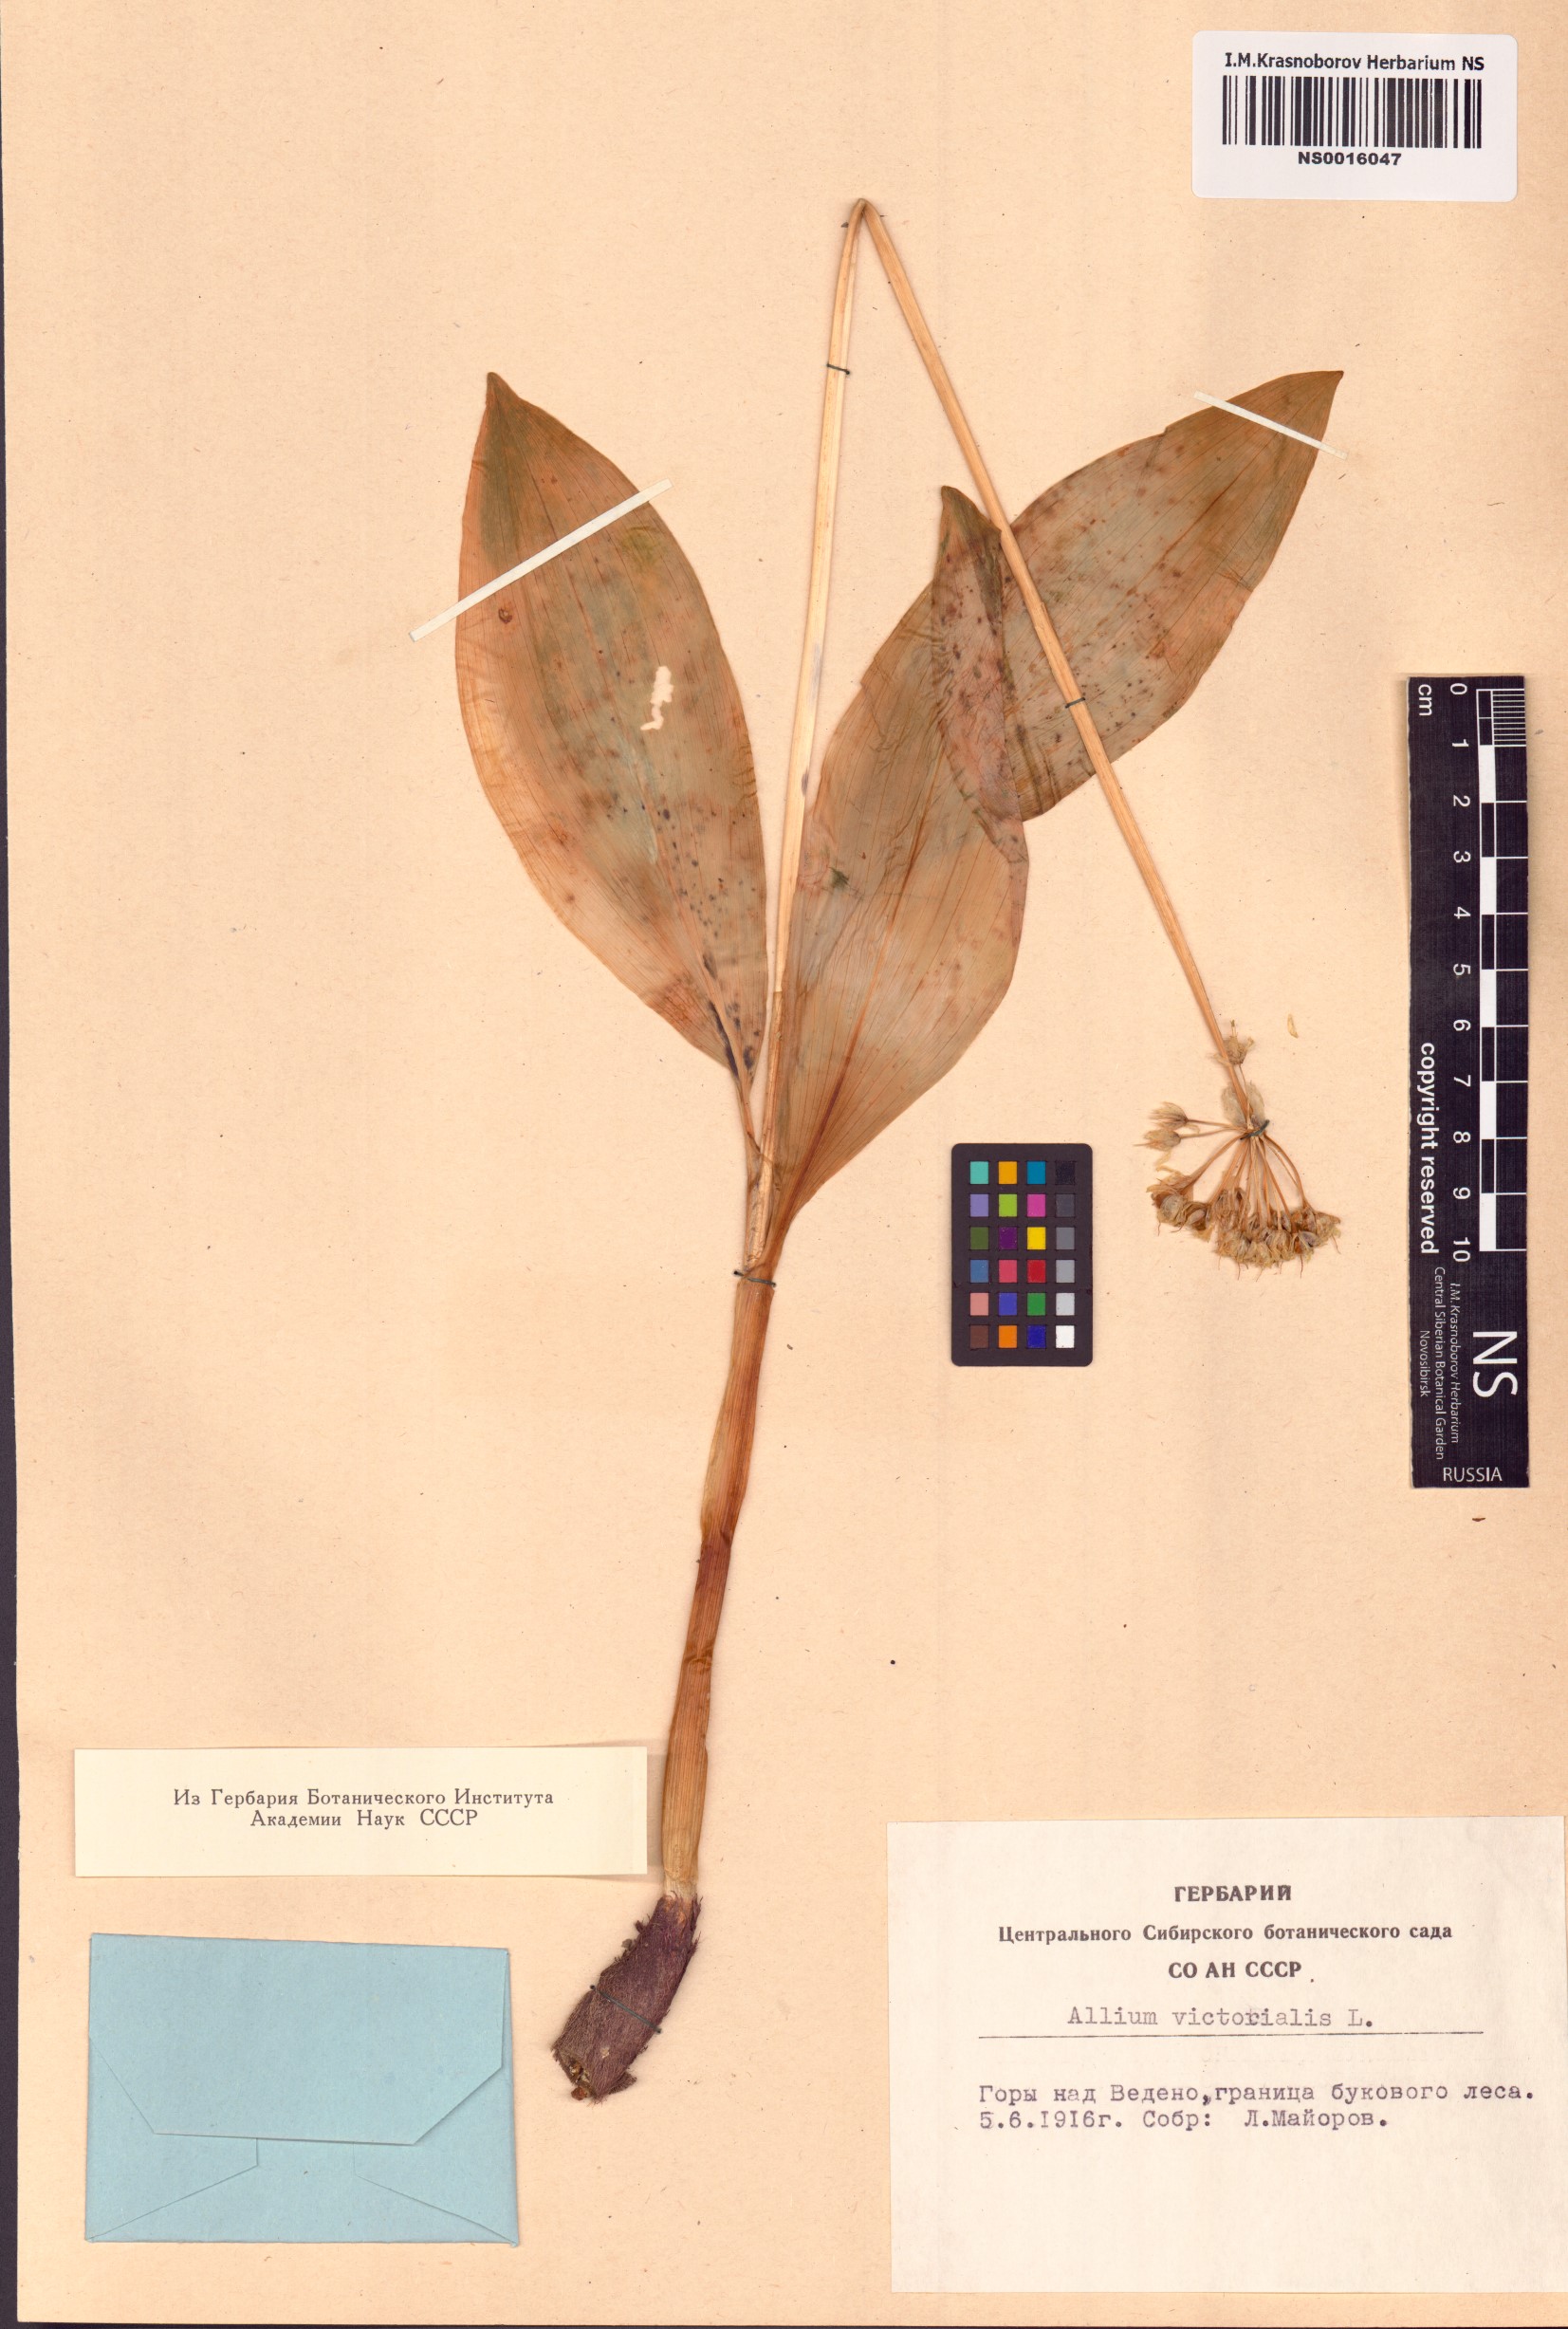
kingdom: Plantae
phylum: Tracheophyta
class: Liliopsida
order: Asparagales
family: Amaryllidaceae
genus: Allium
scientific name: Allium victorialis
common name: Alpine leek
